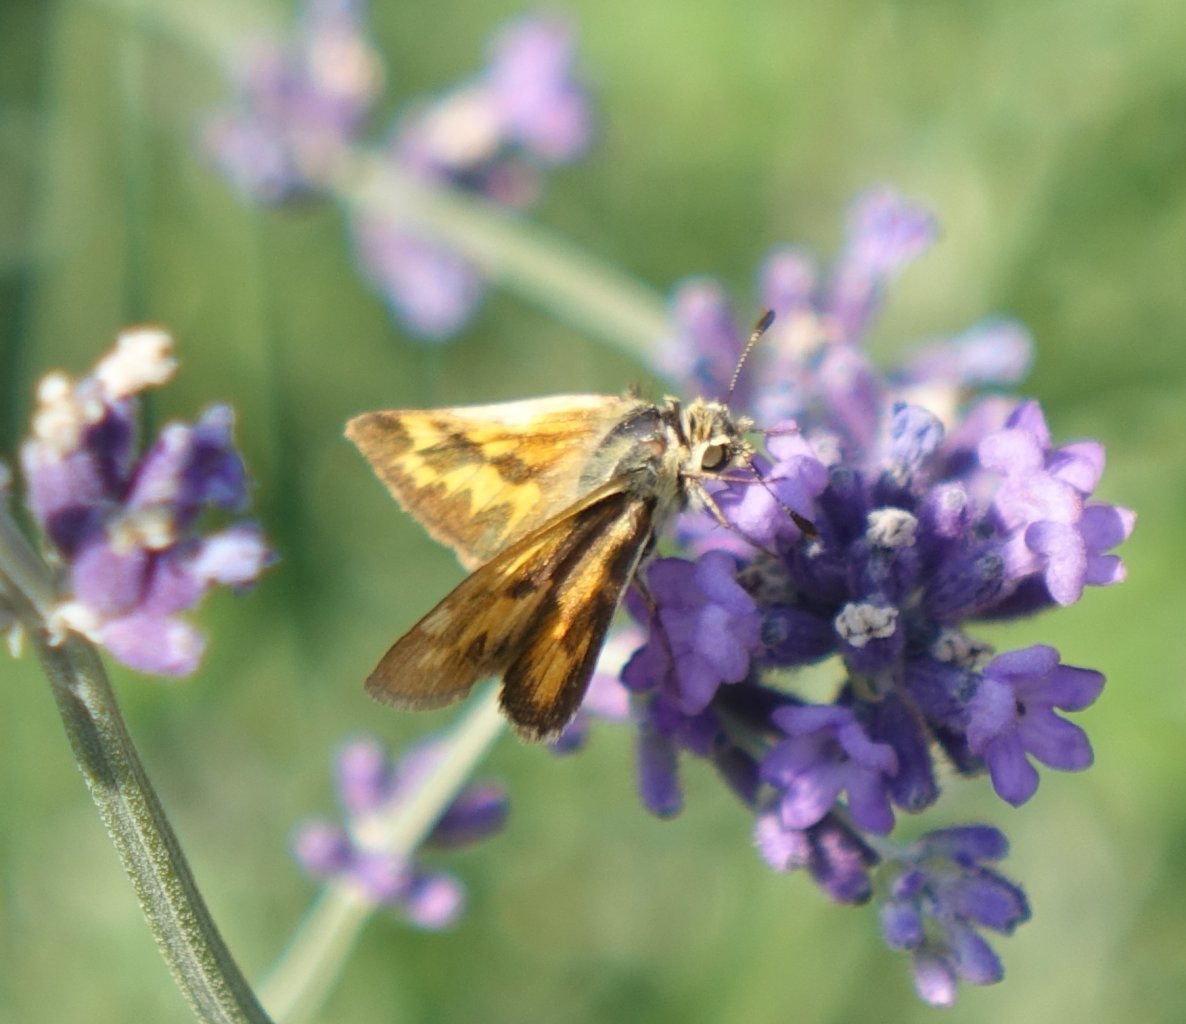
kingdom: Animalia
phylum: Arthropoda
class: Insecta
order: Lepidoptera
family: Hesperiidae
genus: Ochlodes
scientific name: Ochlodes sylvanoides
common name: Woodland Skipper
